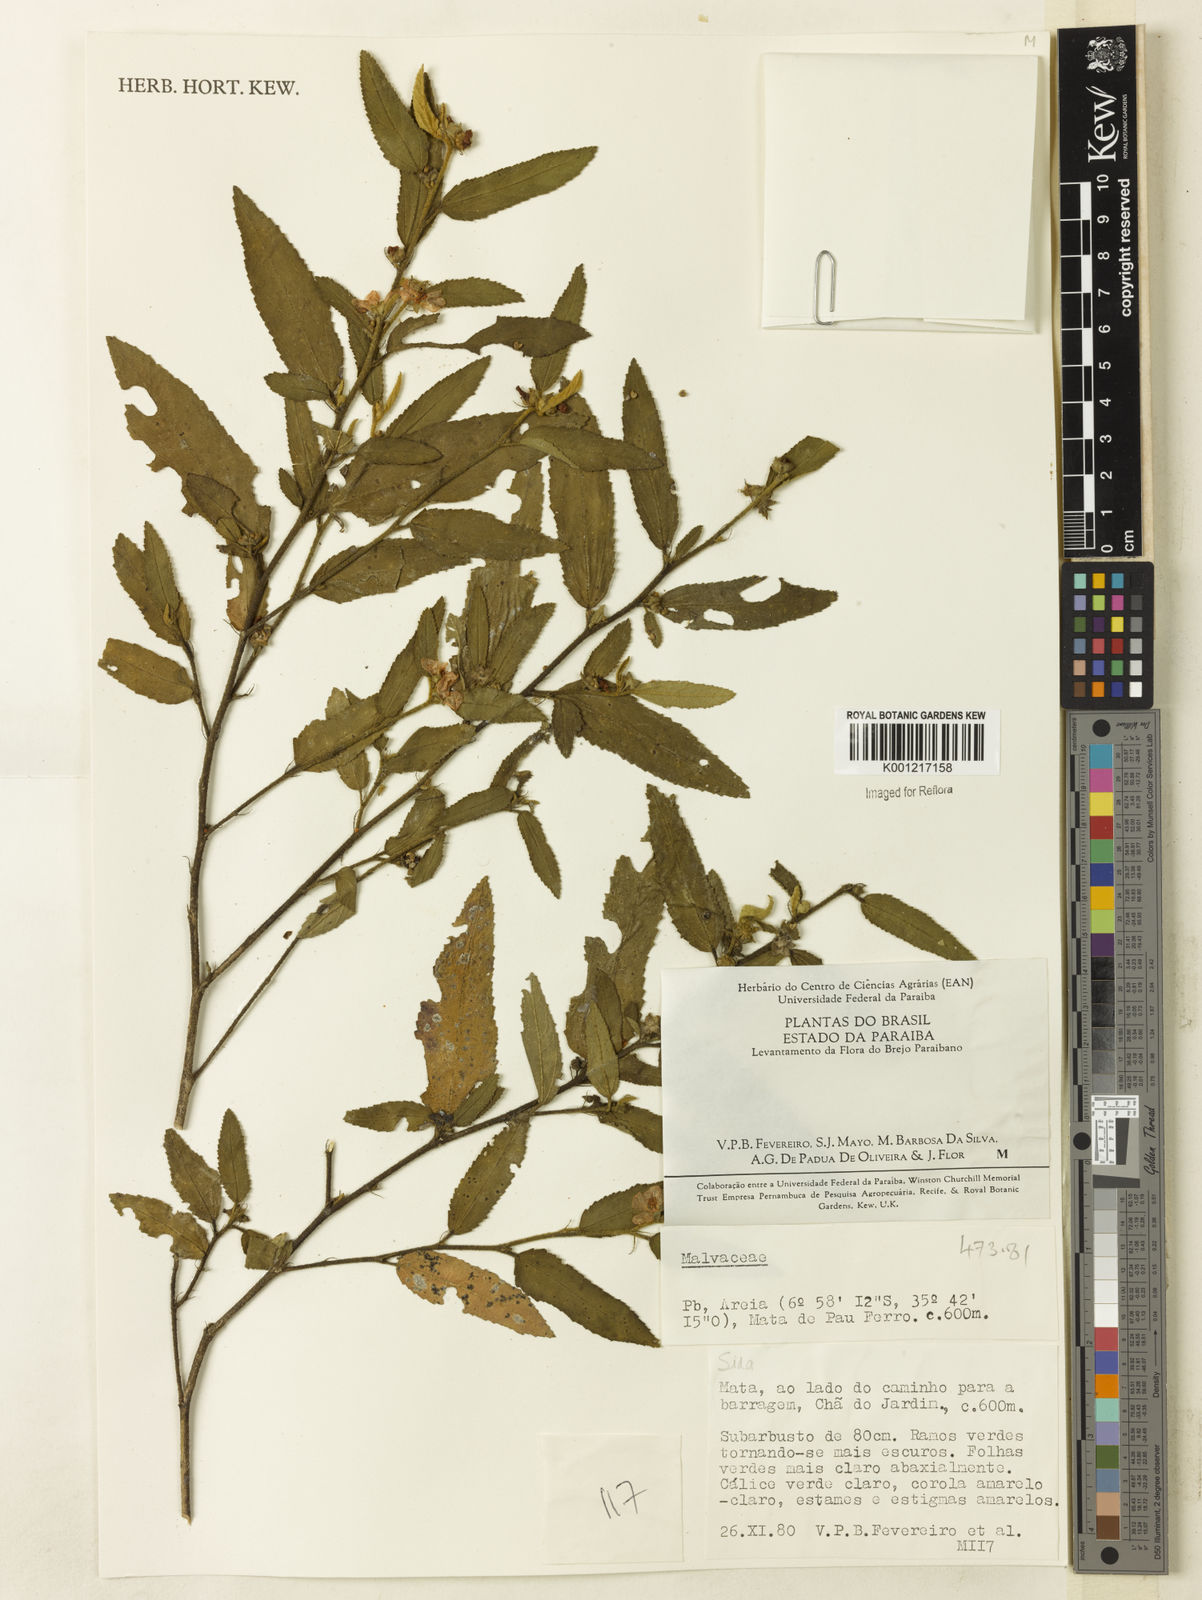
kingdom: Plantae
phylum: Tracheophyta
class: Magnoliopsida
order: Malvales
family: Malvaceae
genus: Sida
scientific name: Sida
